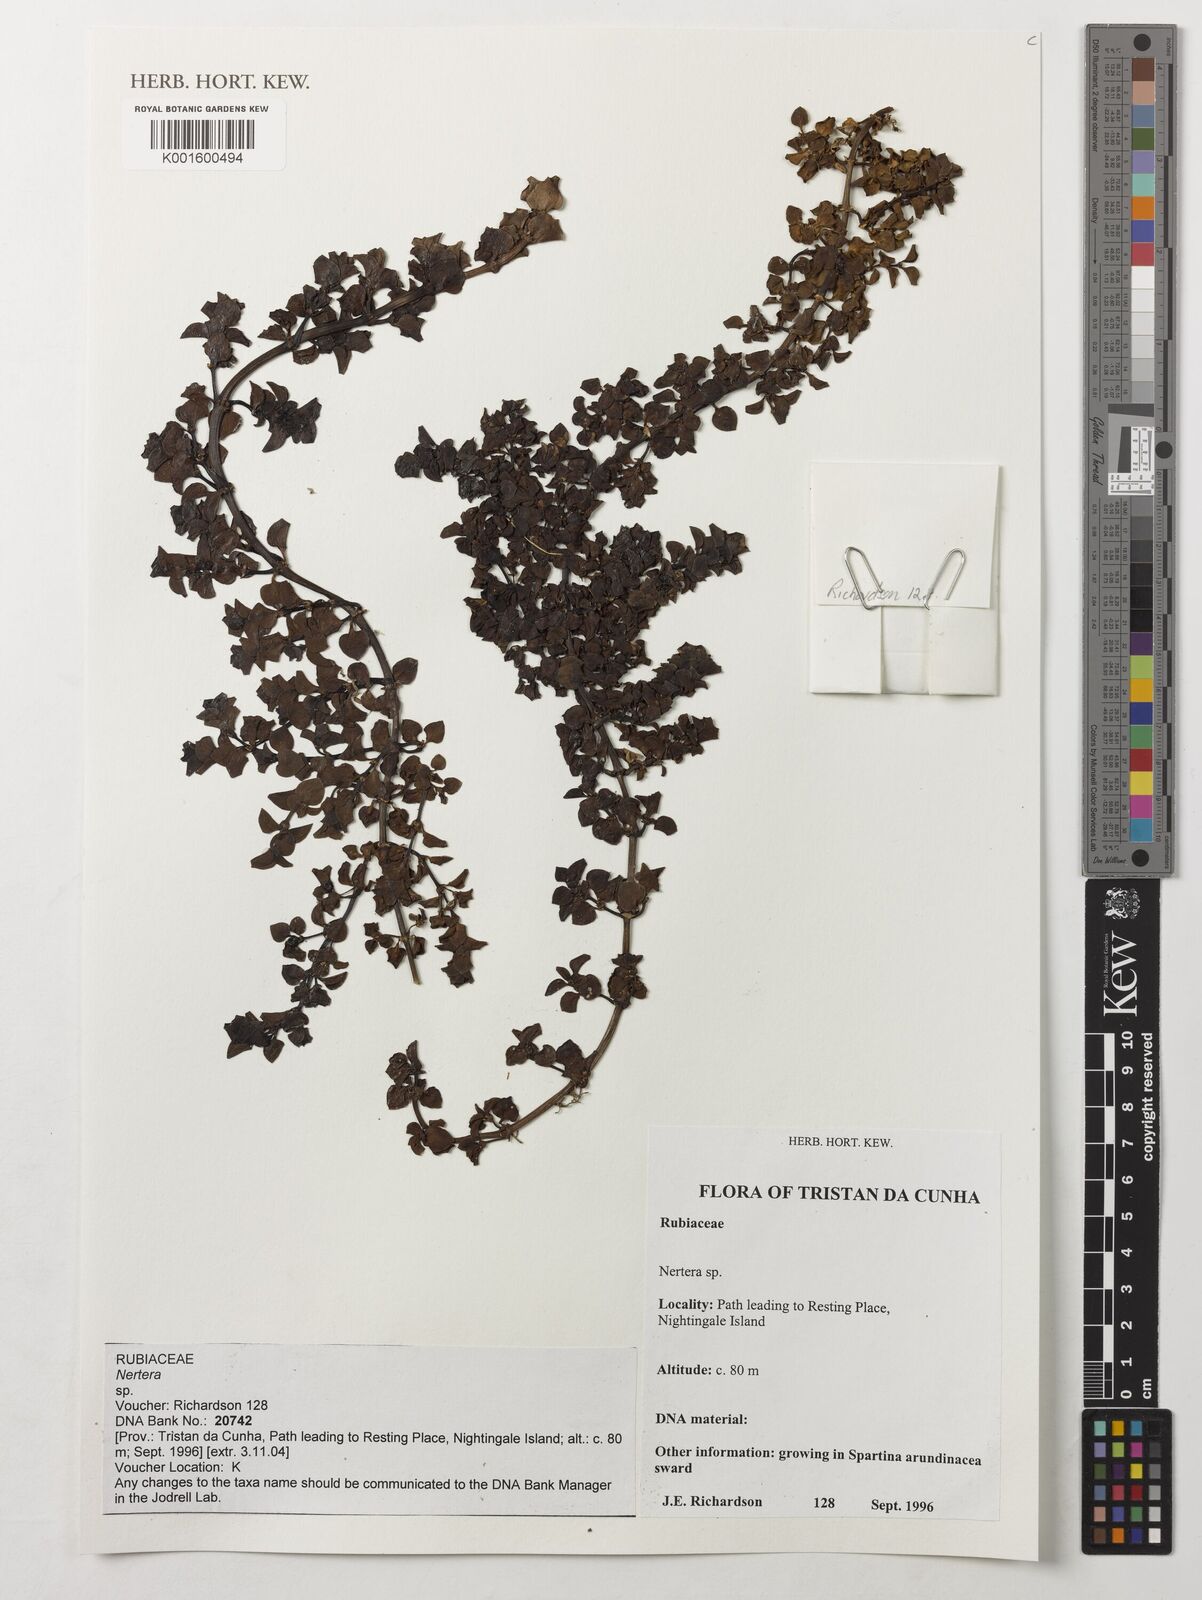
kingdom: Plantae
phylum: Tracheophyta
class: Magnoliopsida
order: Gentianales
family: Rubiaceae
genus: Nertera
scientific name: Nertera
